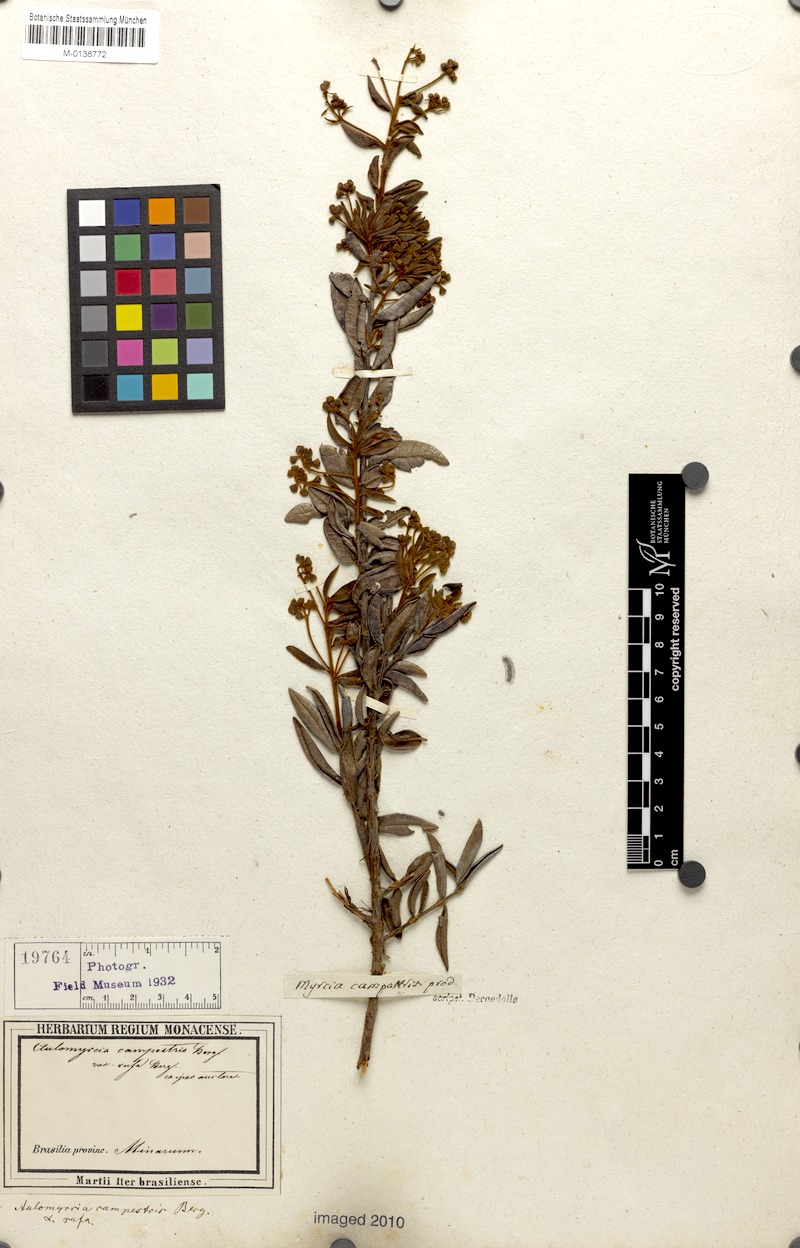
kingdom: Plantae
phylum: Tracheophyta
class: Magnoliopsida
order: Myrtales
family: Myrtaceae
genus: Myrcia
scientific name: Myrcia guianensis
